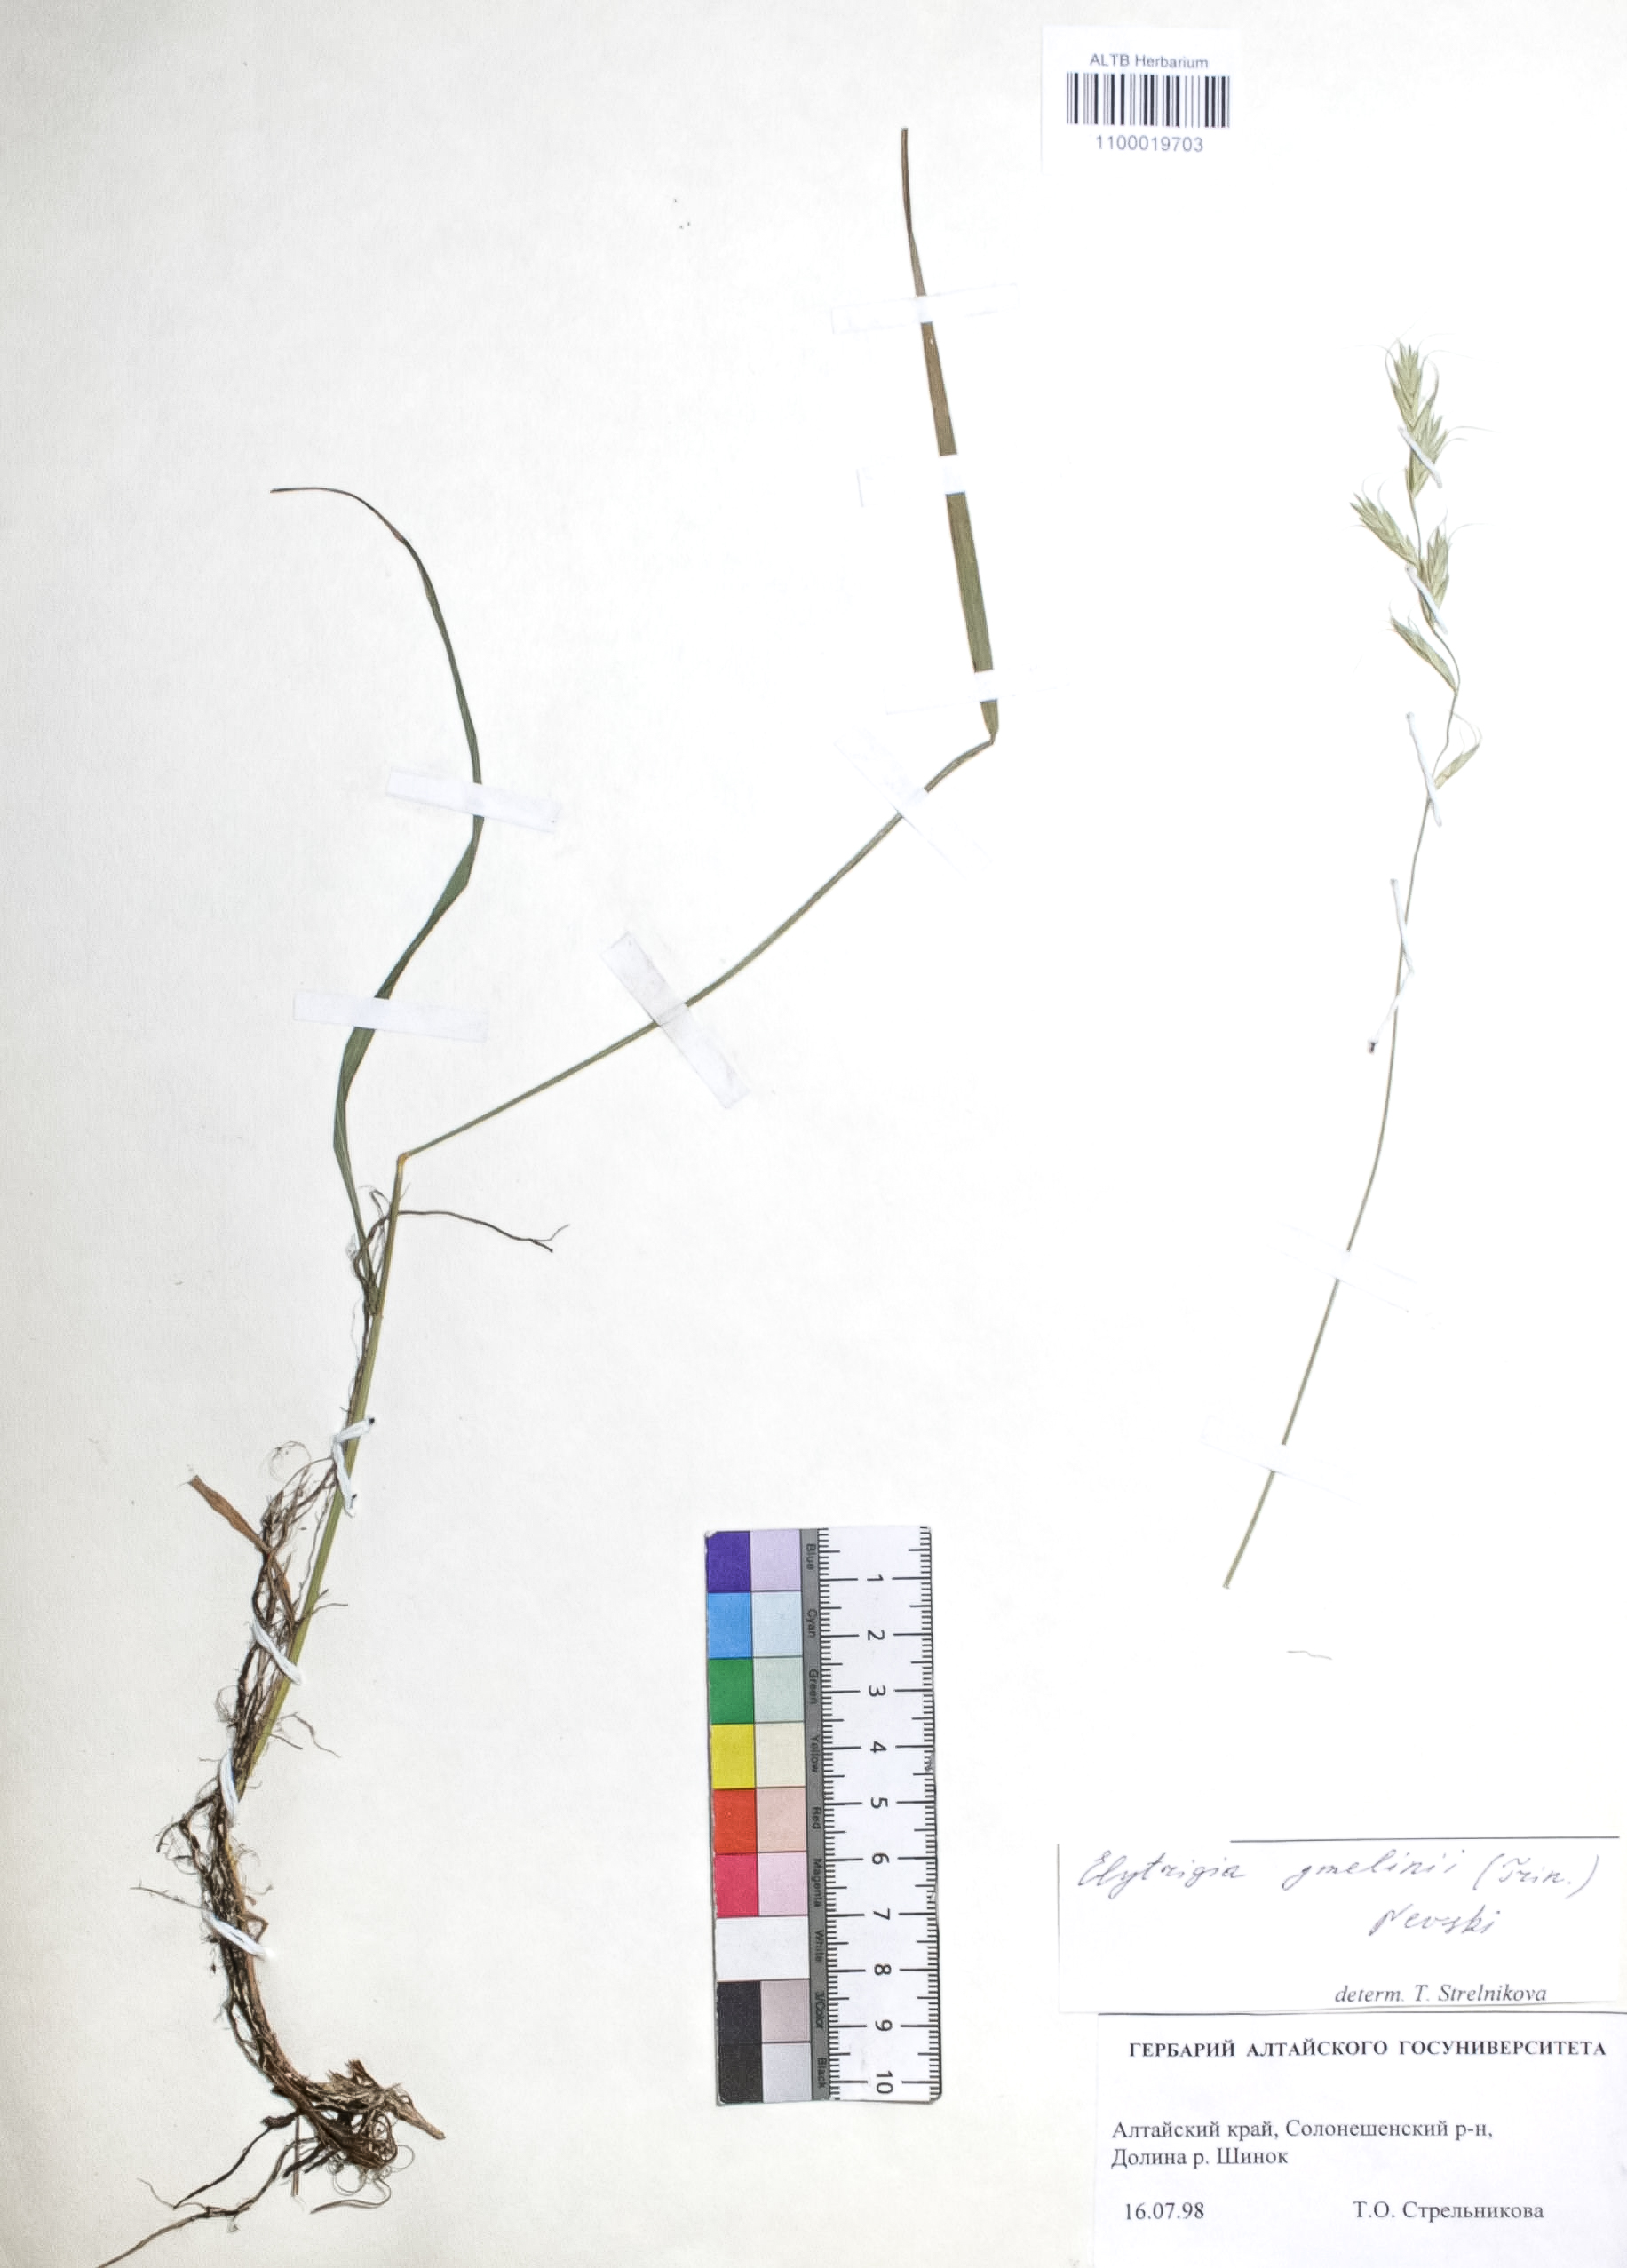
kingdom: Plantae
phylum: Tracheophyta
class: Liliopsida
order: Poales
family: Poaceae
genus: Pseudoroegneria
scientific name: Pseudoroegneria reflexiaristata
